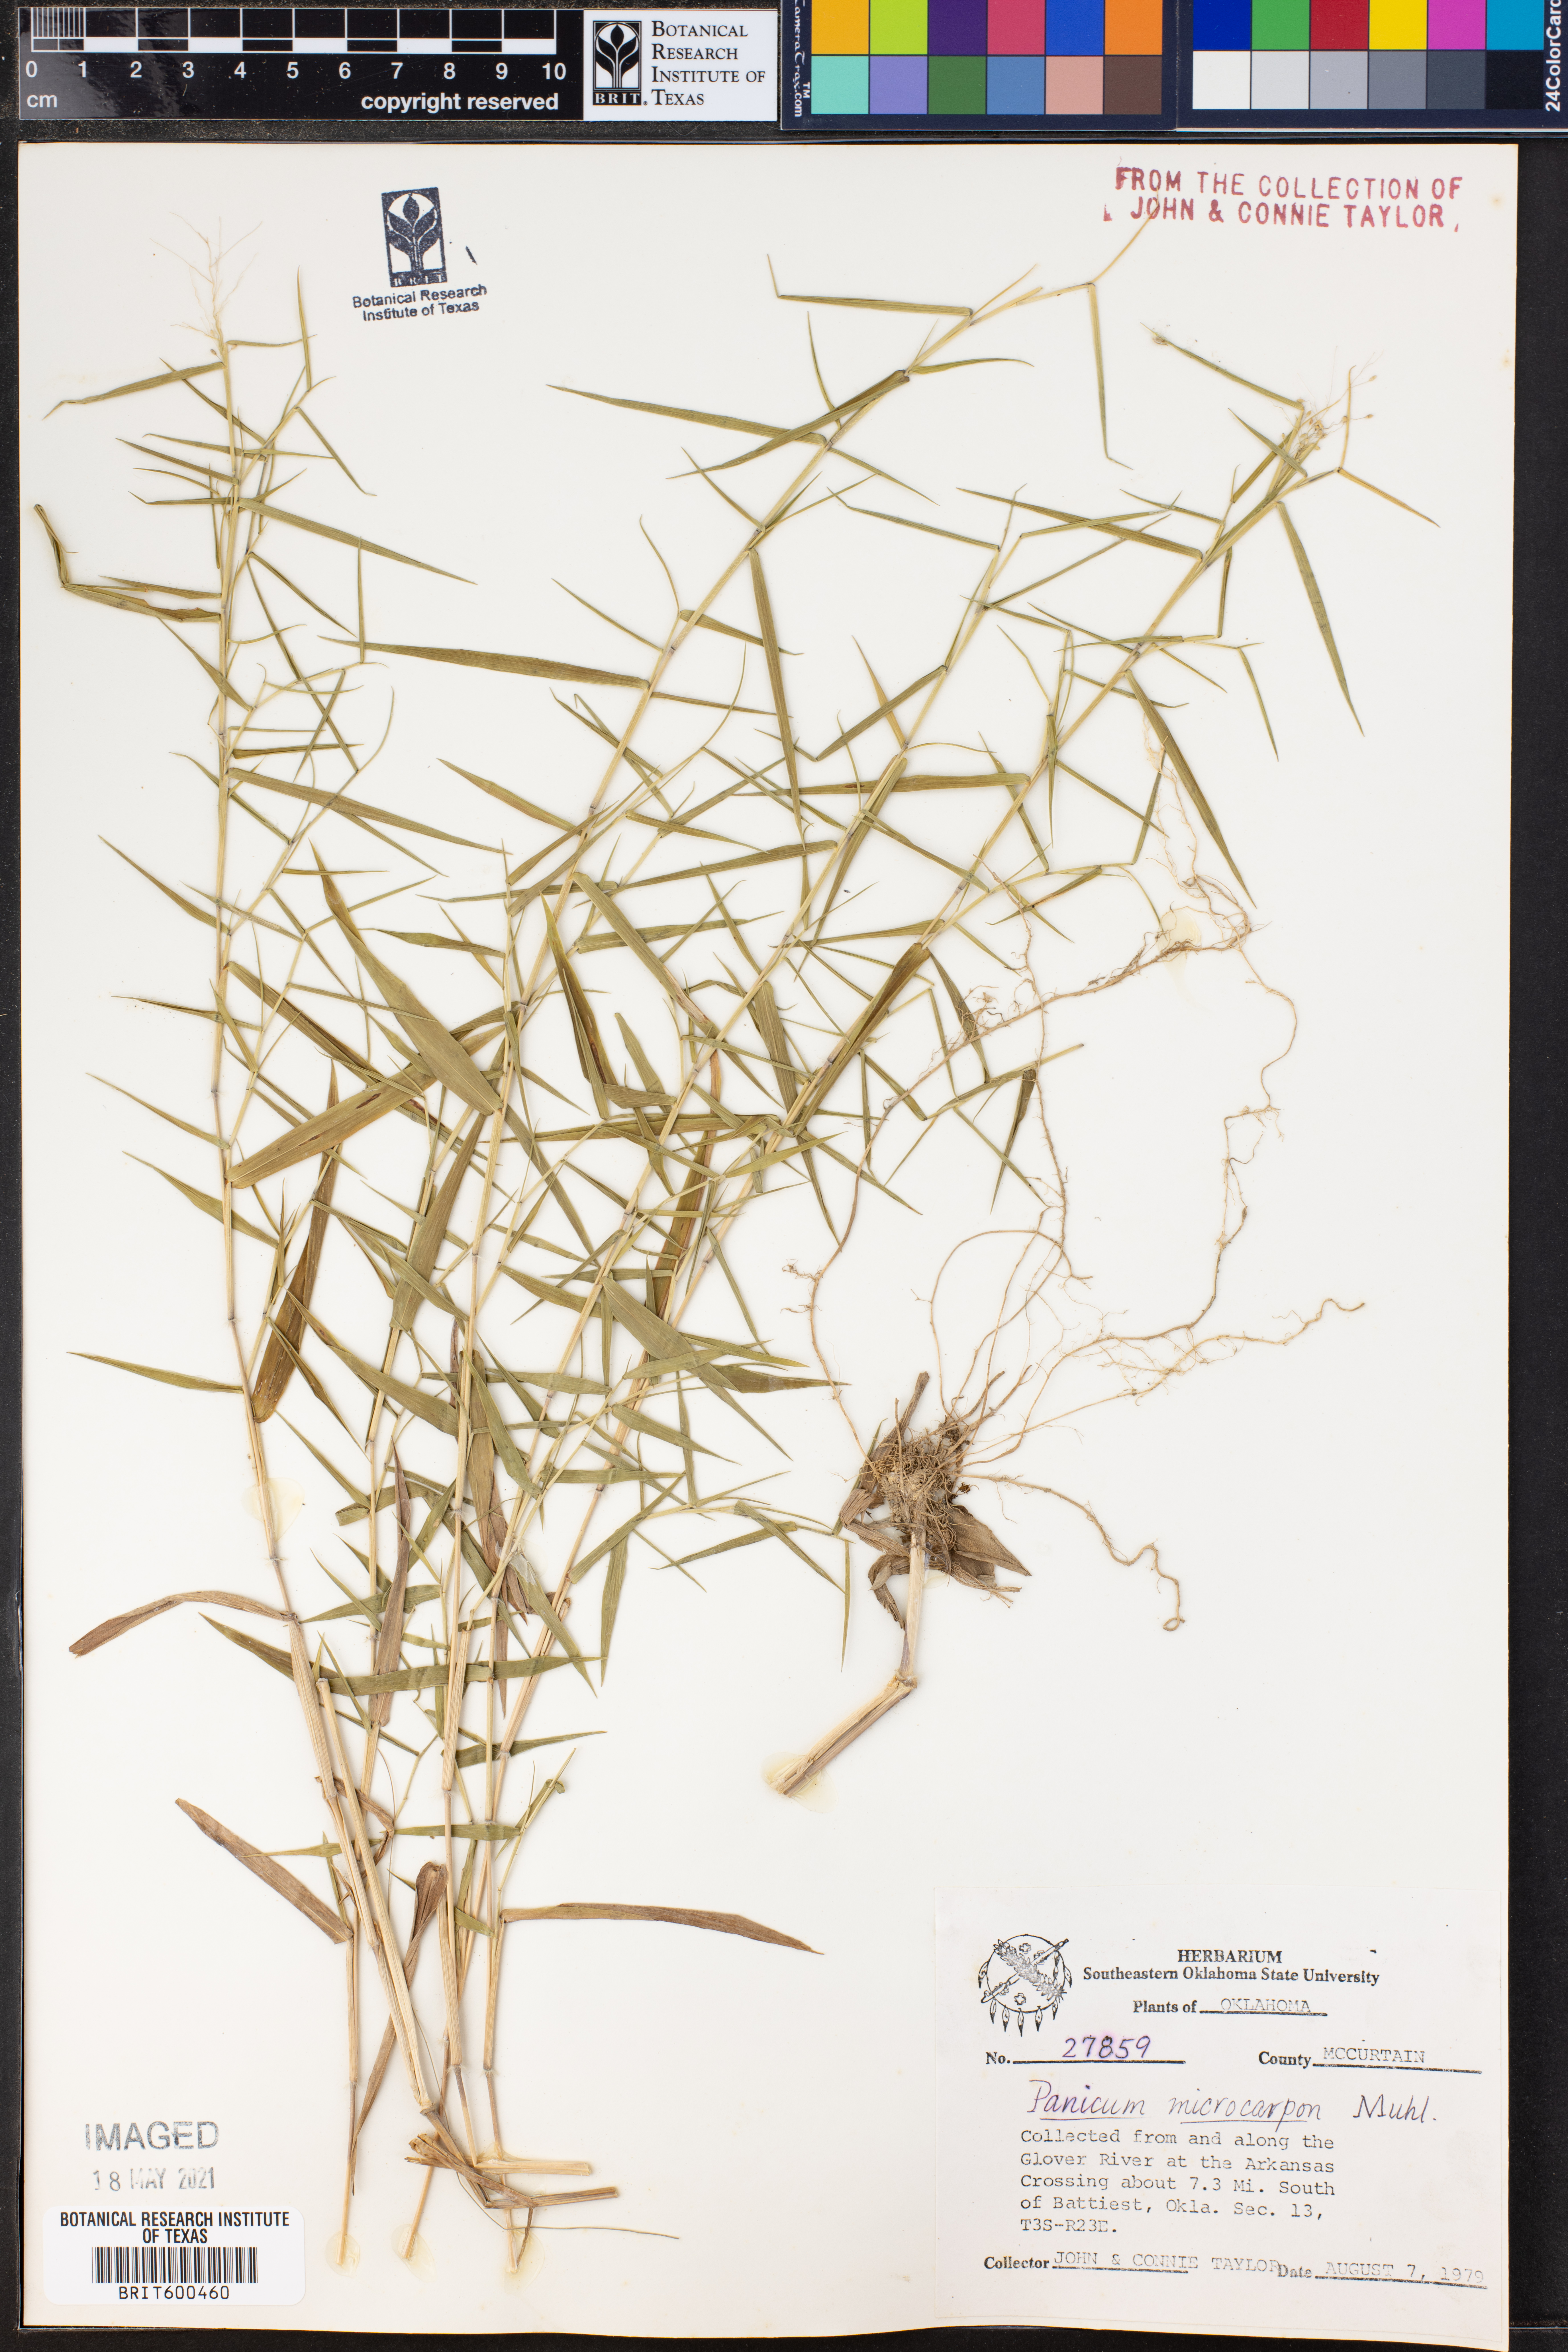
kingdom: Plantae
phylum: Tracheophyta
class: Liliopsida
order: Poales
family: Poaceae
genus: Dichanthelium
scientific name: Dichanthelium polyanthes
